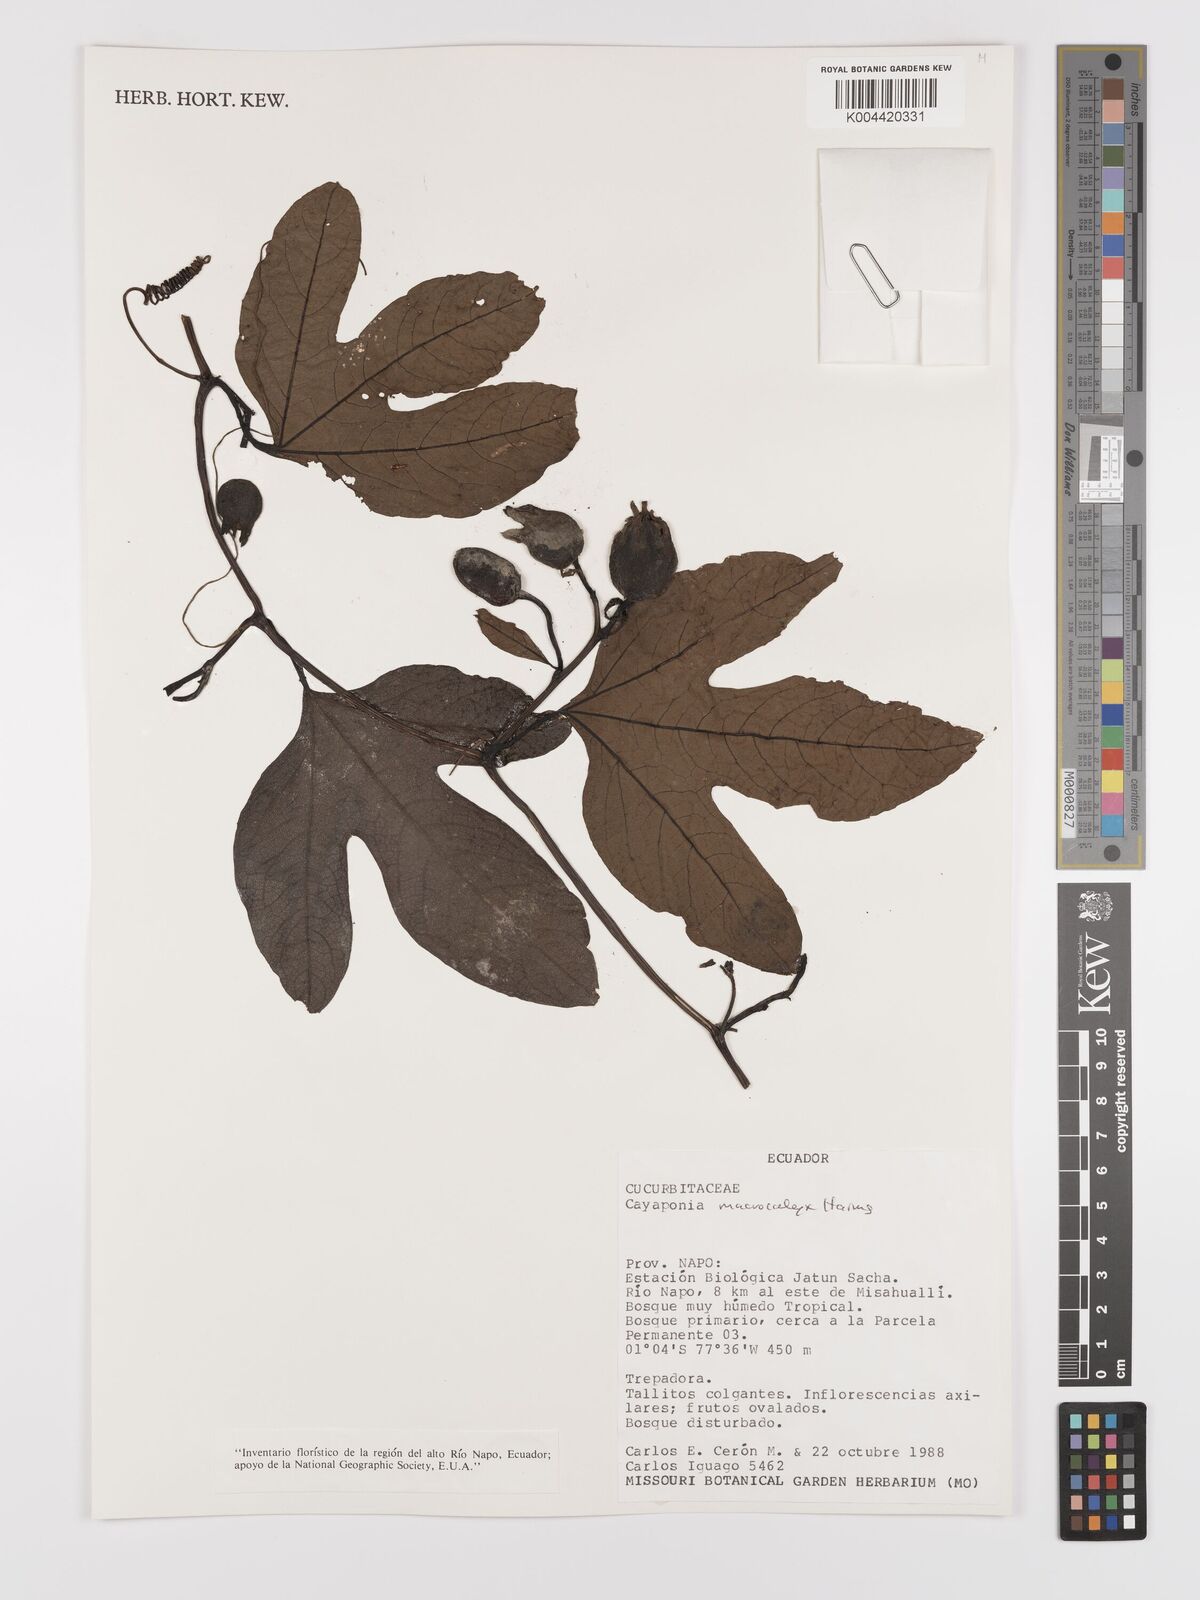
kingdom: Plantae
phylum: Tracheophyta
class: Magnoliopsida
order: Cucurbitales
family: Cucurbitaceae
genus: Cayaponia
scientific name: Cayaponia macrocalyx
